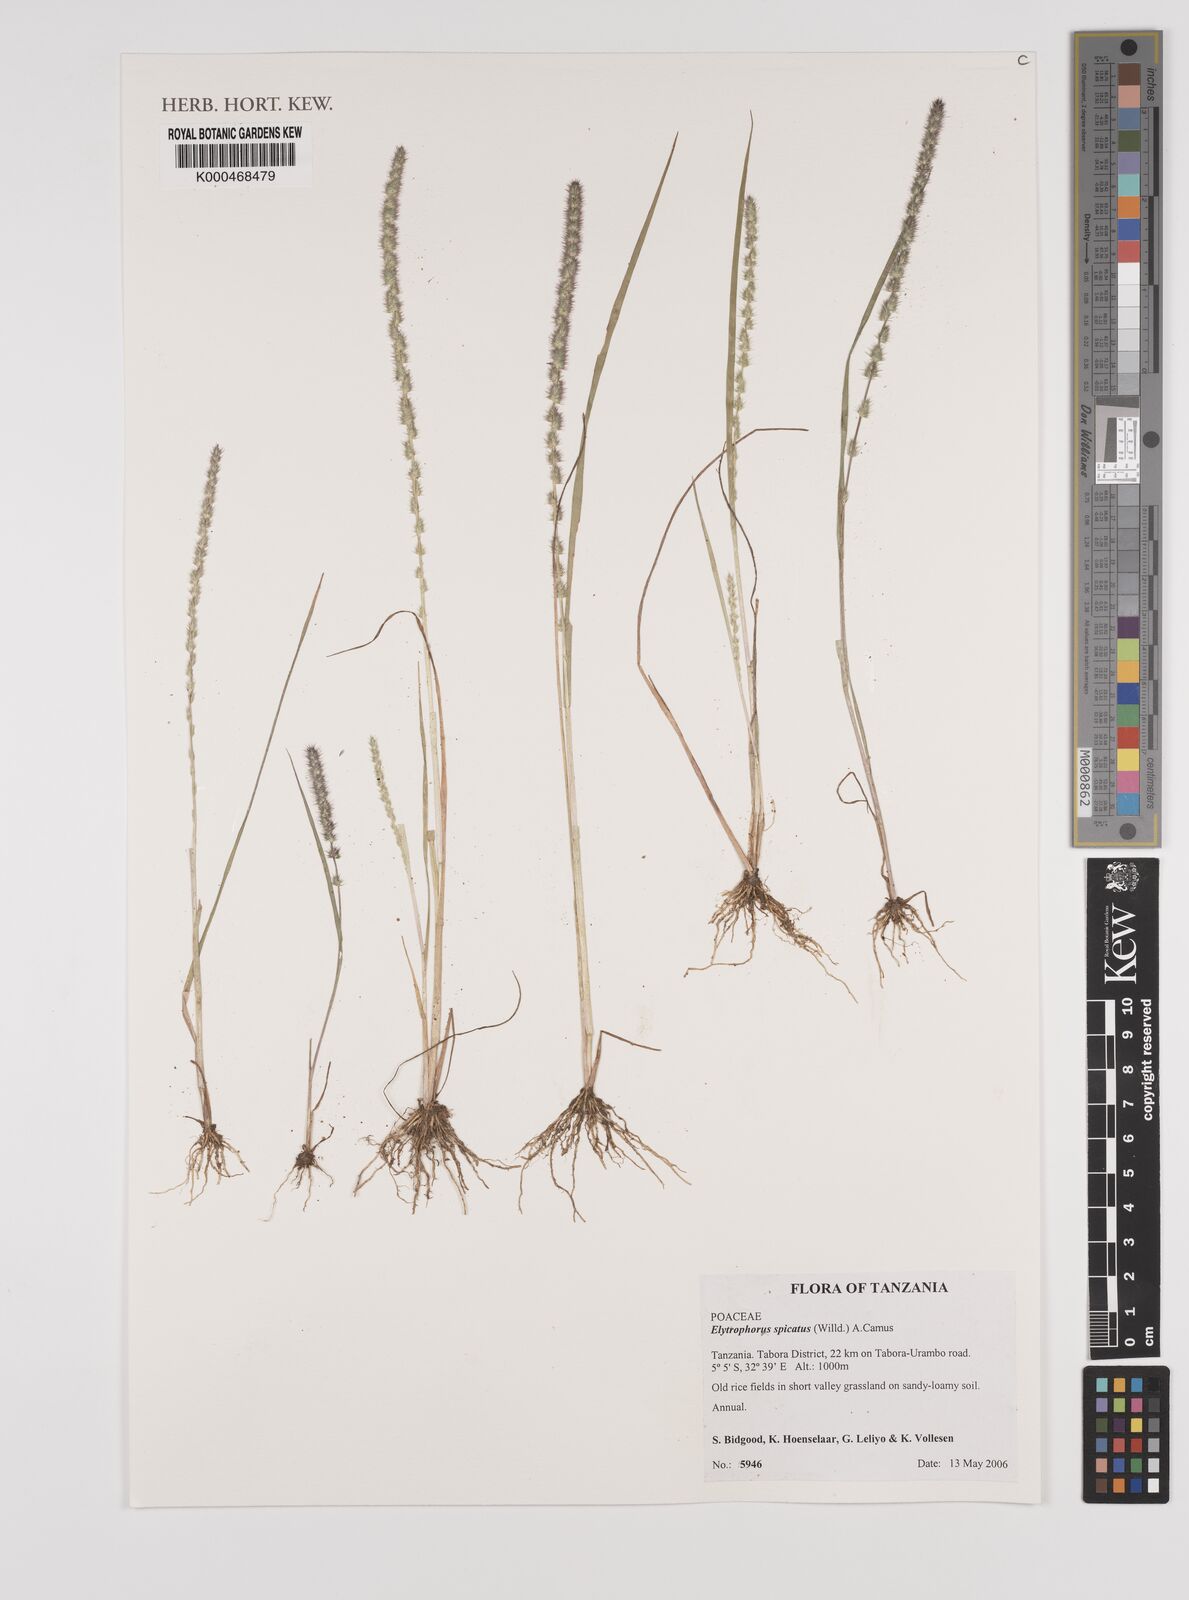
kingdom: Plantae
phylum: Tracheophyta
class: Liliopsida
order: Poales
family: Poaceae
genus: Elytrophorus
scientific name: Elytrophorus spicatus
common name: Spike grass
